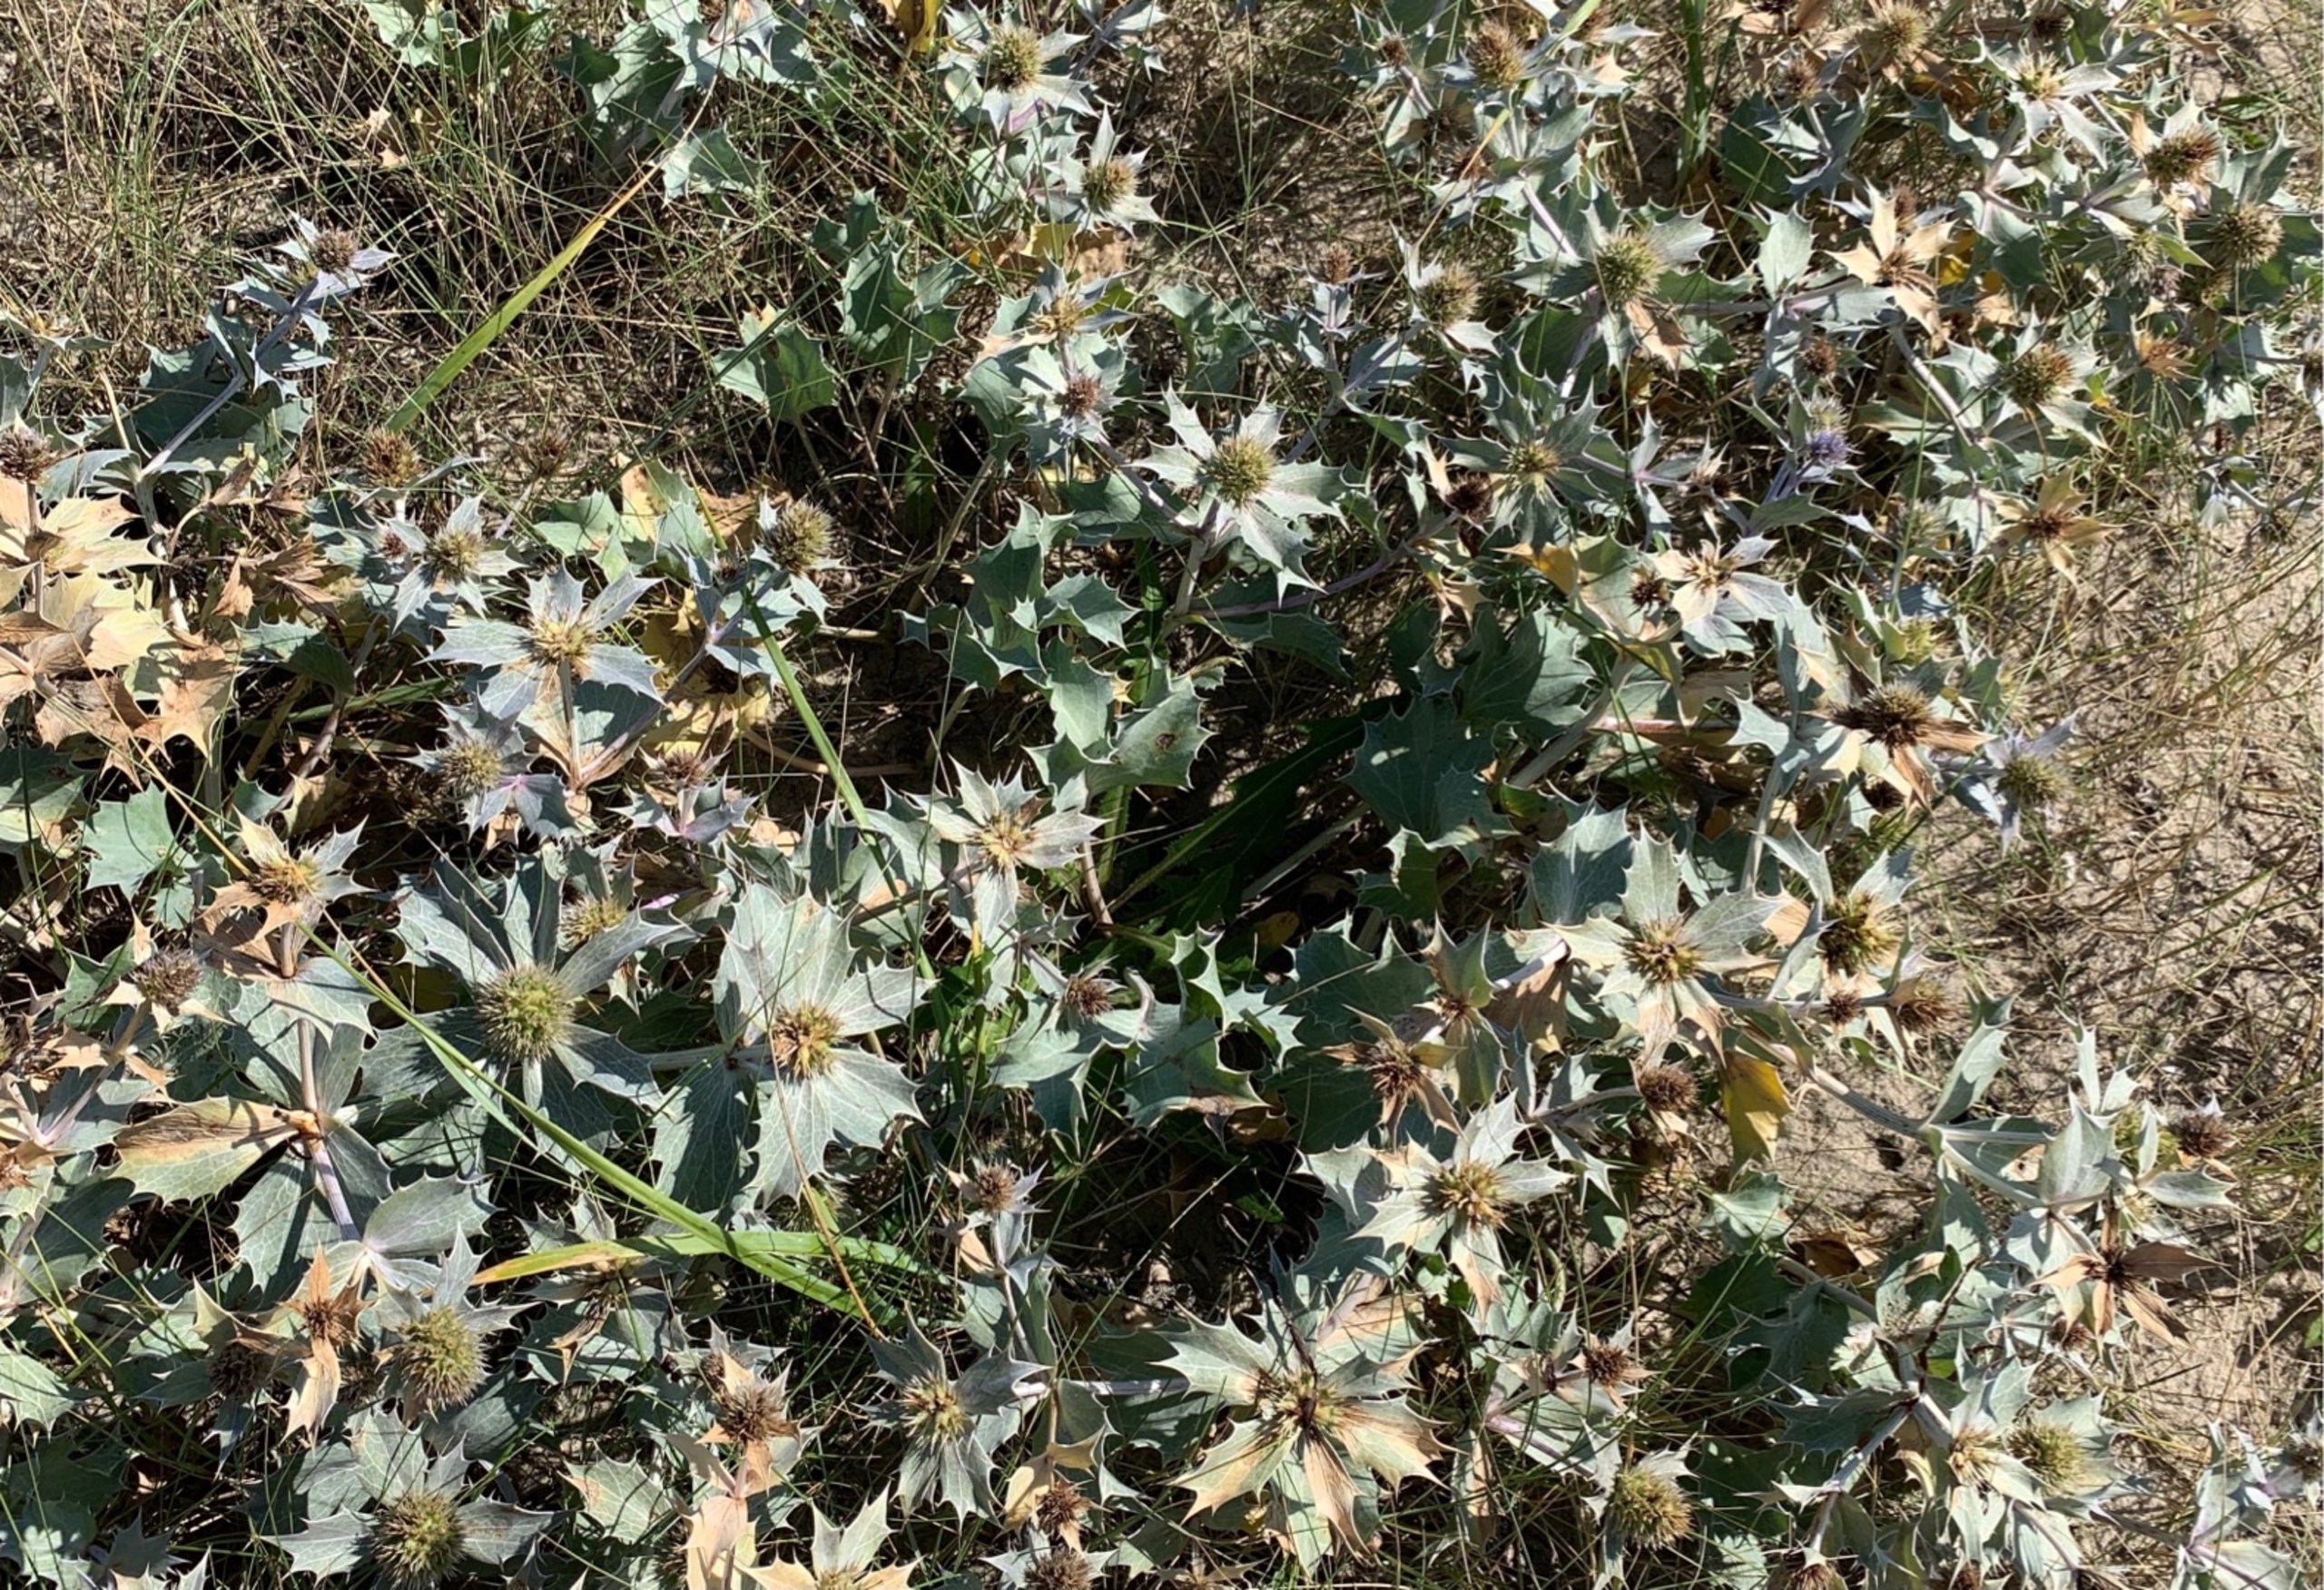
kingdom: Plantae
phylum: Tracheophyta
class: Magnoliopsida
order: Apiales
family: Apiaceae
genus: Eryngium
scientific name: Eryngium maritimum
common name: Strand-mandstro
